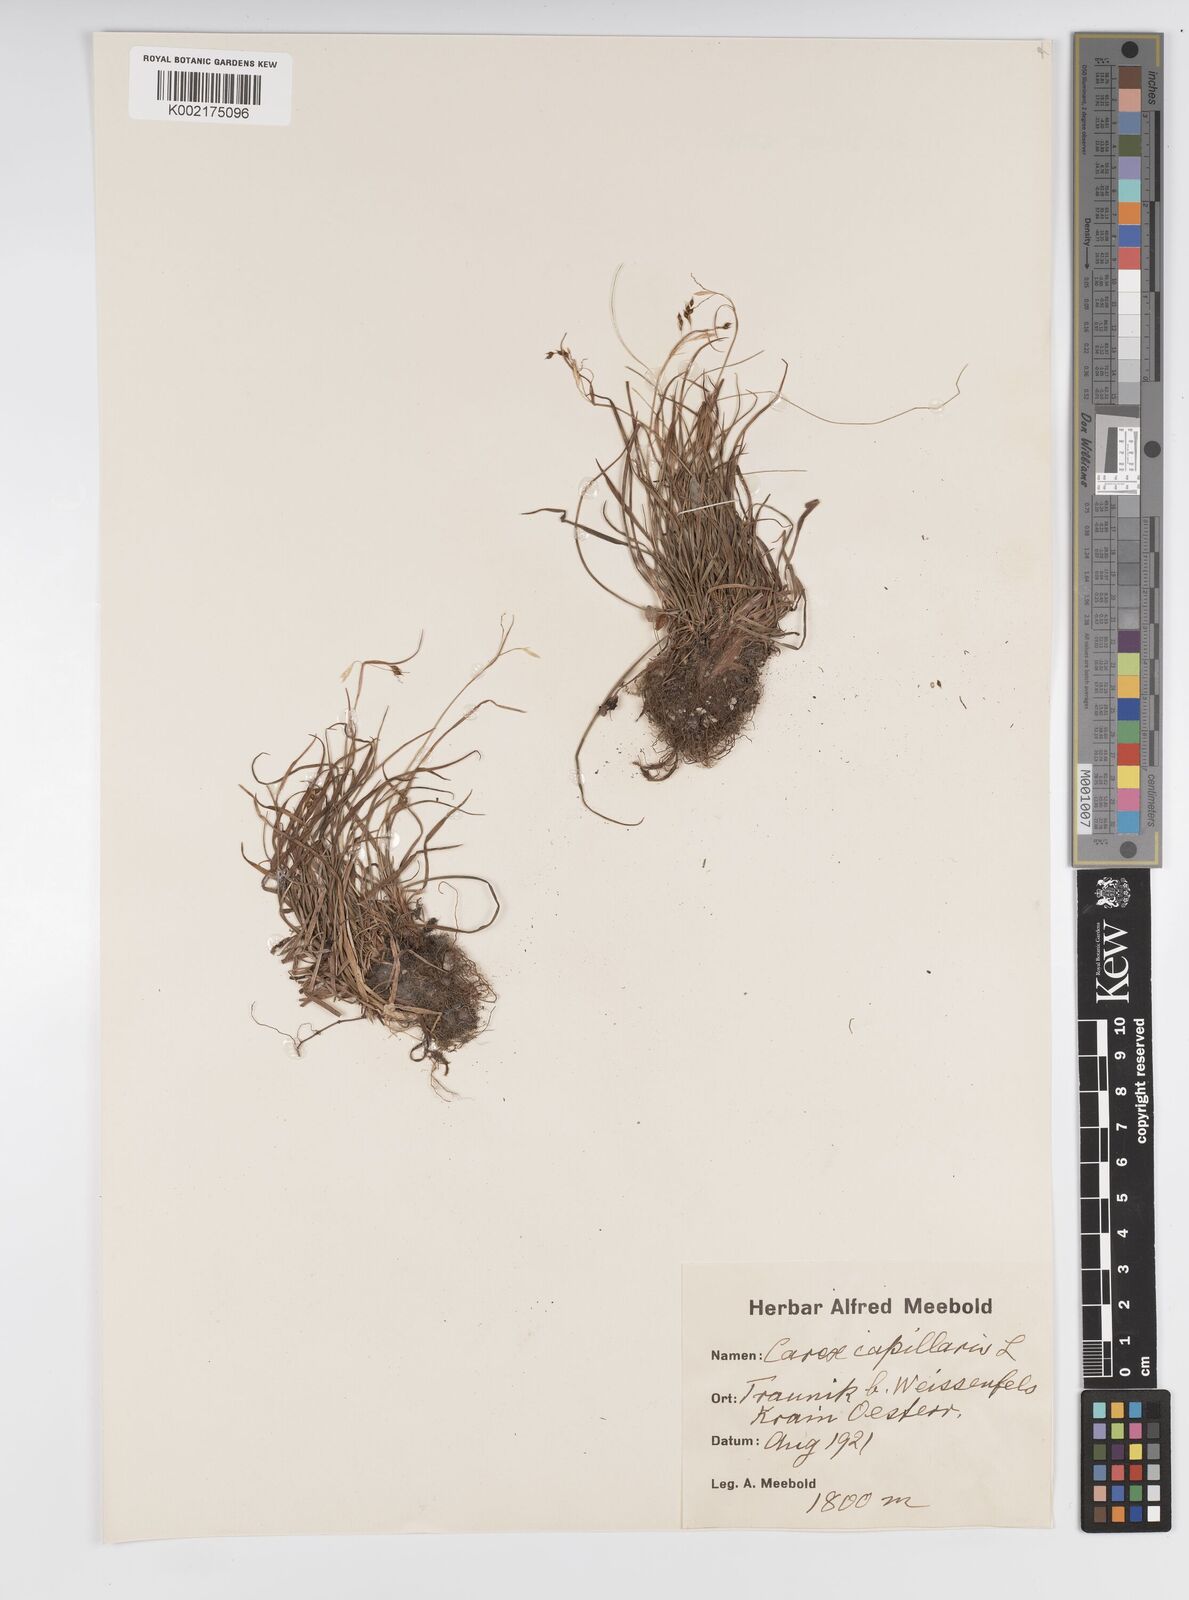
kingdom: Plantae
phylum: Tracheophyta
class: Liliopsida
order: Poales
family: Cyperaceae
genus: Carex
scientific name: Carex capillaris
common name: Hair sedge
